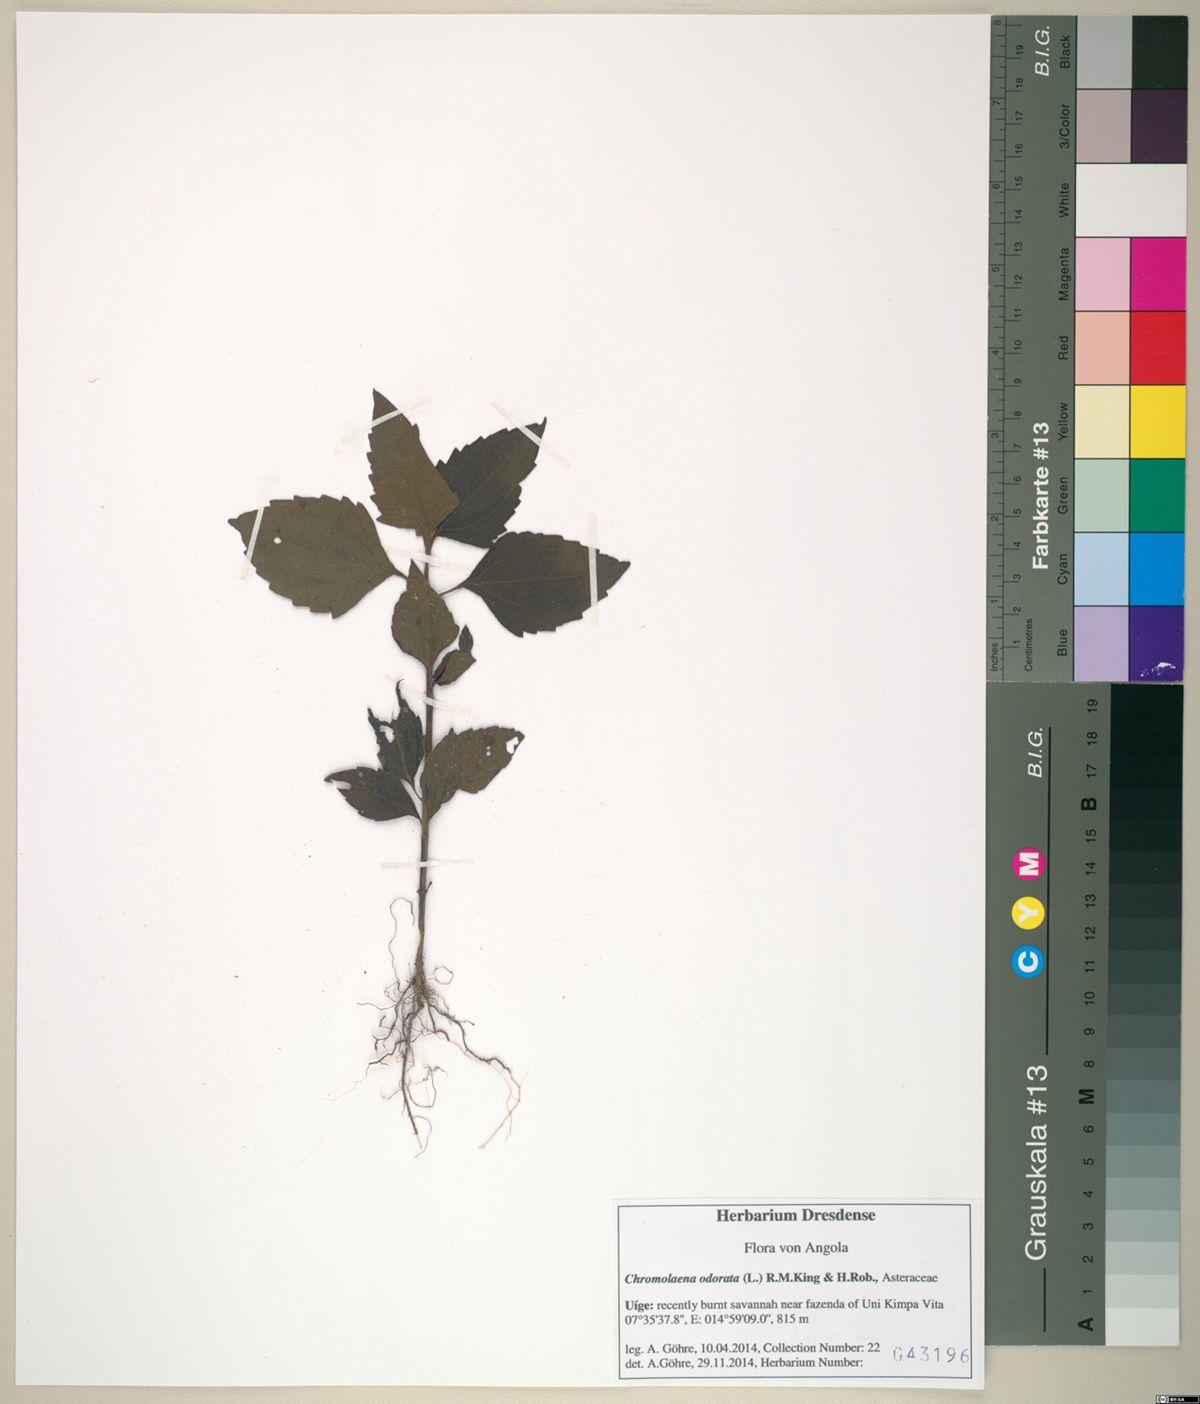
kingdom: Plantae
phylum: Tracheophyta
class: Magnoliopsida
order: Asterales
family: Asteraceae
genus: Chromolaena
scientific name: Chromolaena odorata
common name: Siamweed
